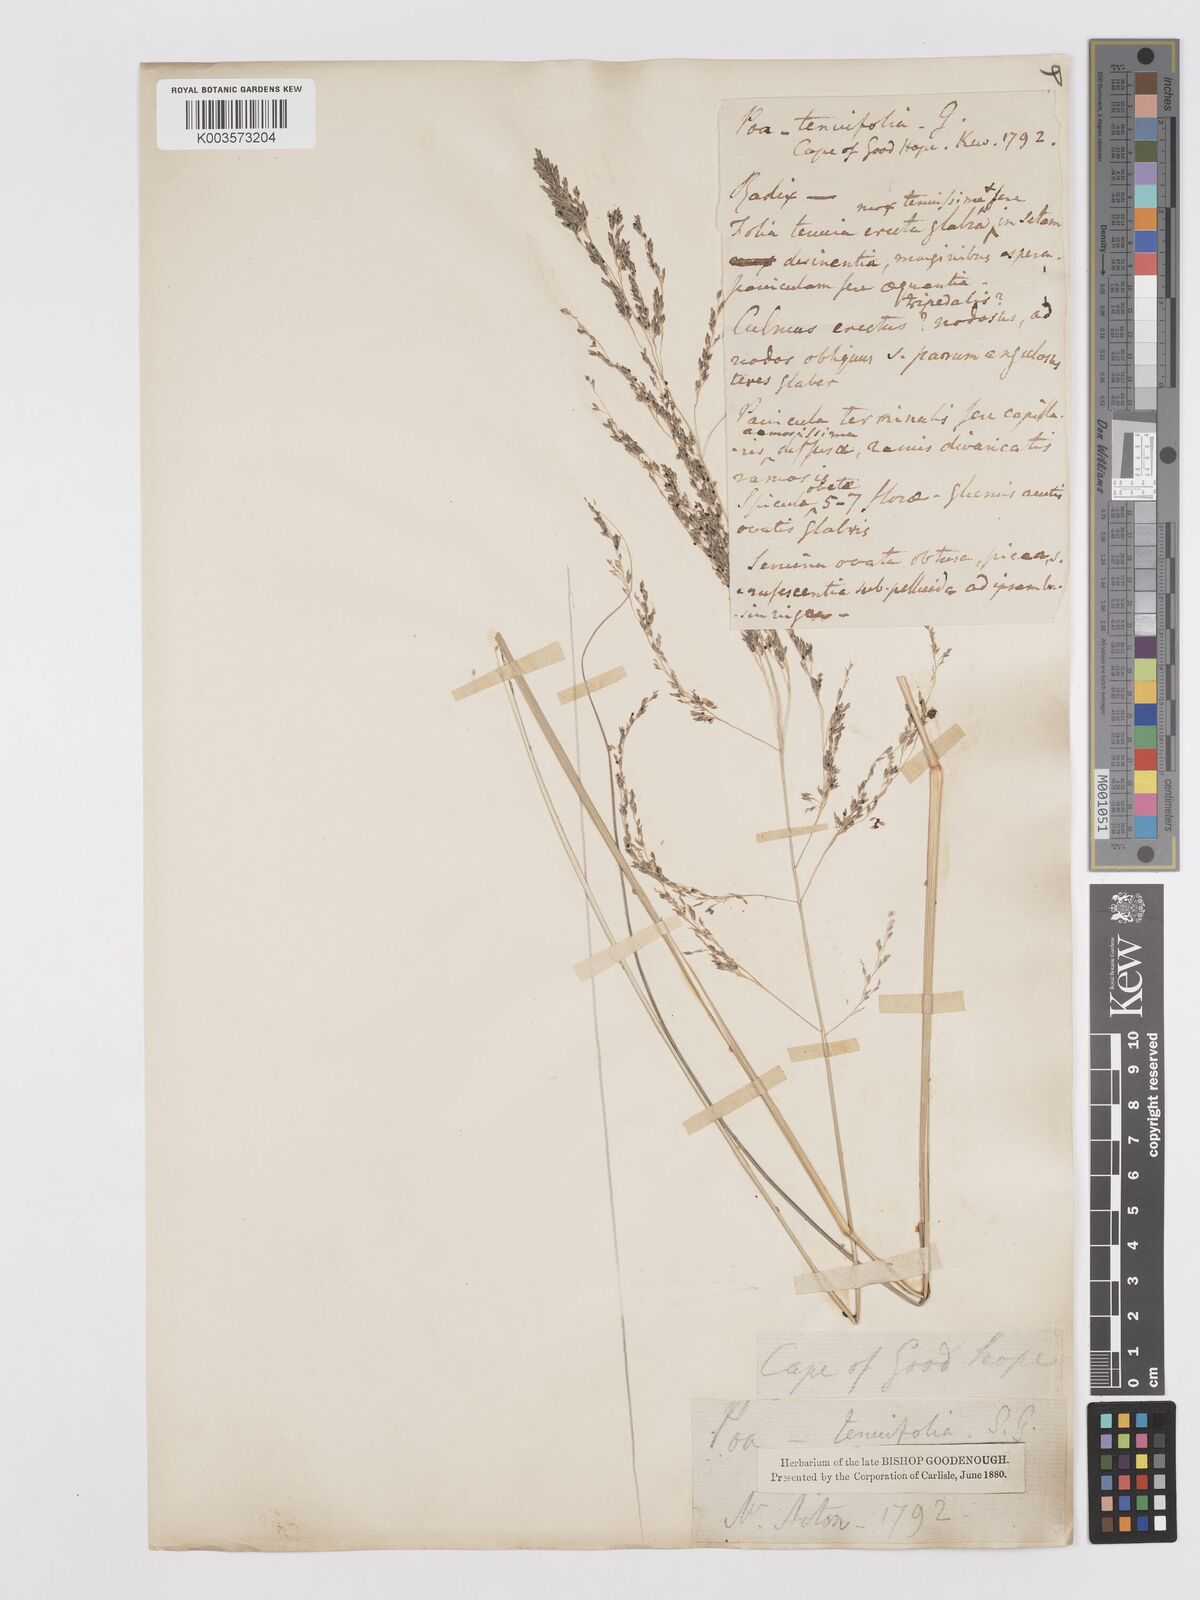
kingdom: Plantae
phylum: Tracheophyta
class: Liliopsida
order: Poales
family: Poaceae
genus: Eragrostis
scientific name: Eragrostis curvula
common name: African love-grass
